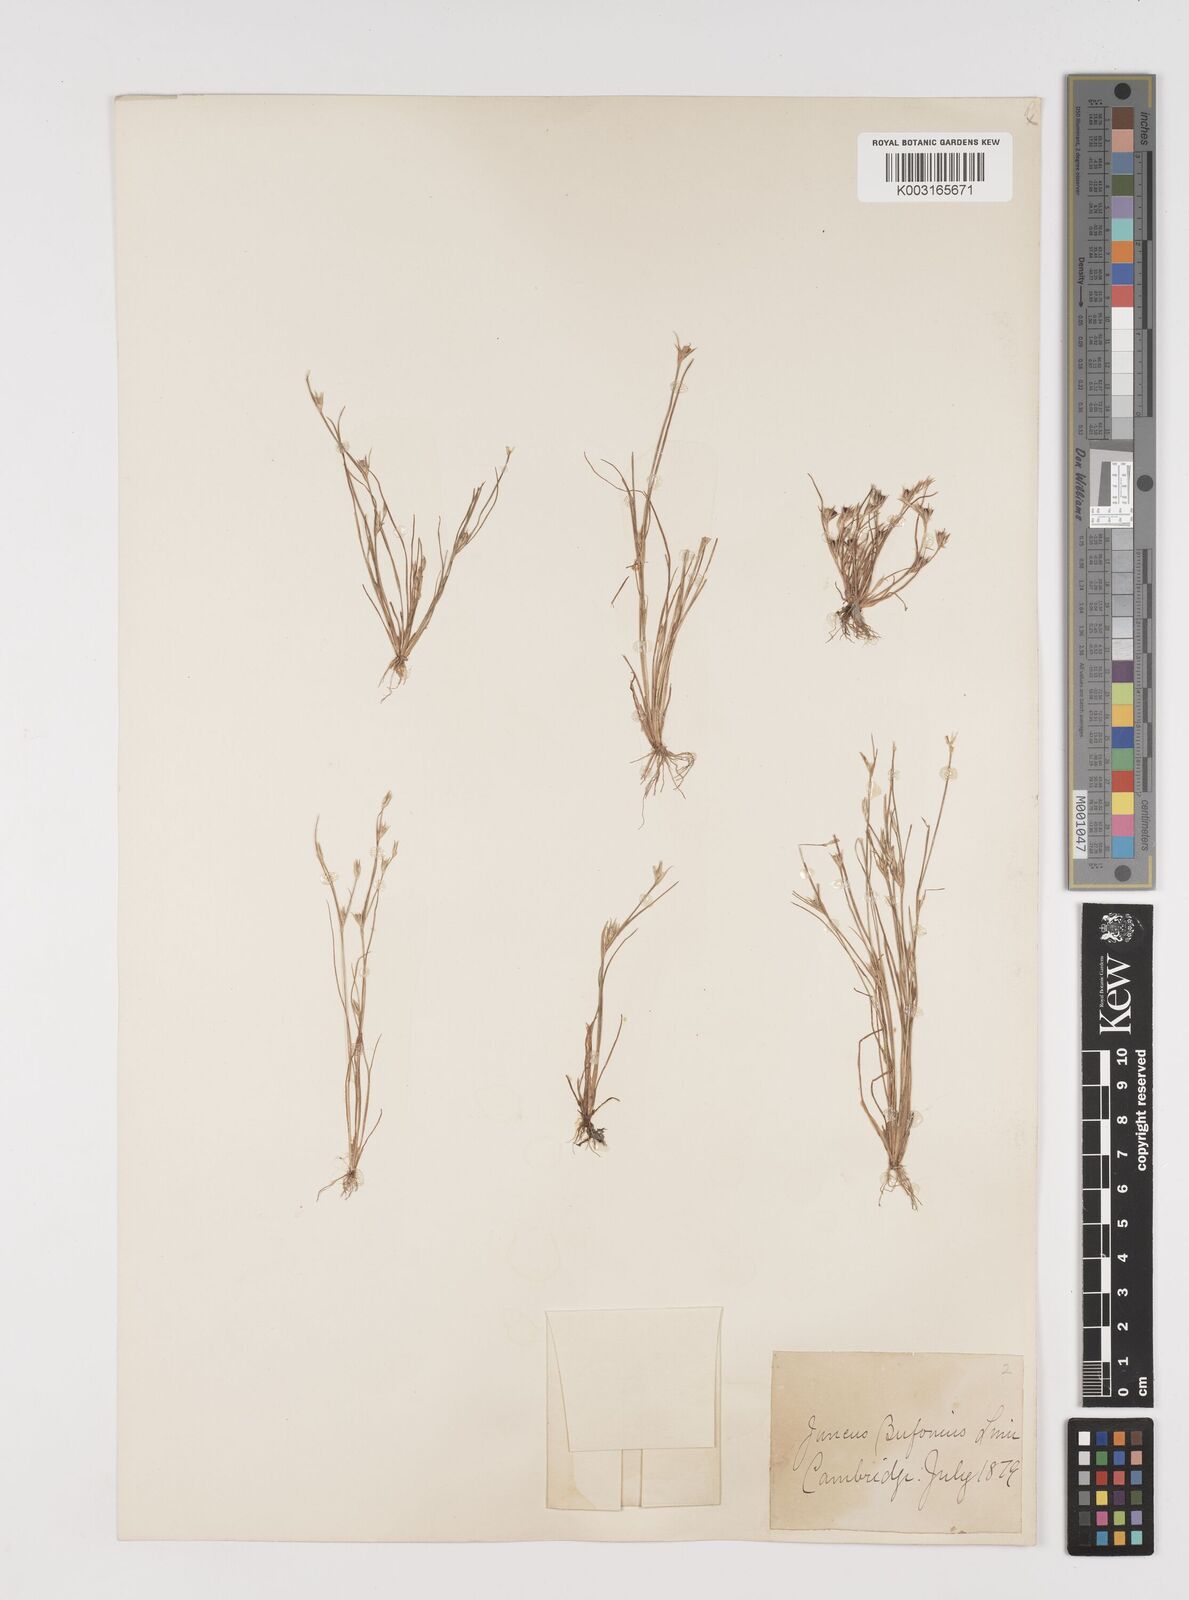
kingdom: Plantae
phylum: Tracheophyta
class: Liliopsida
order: Poales
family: Juncaceae
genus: Juncus
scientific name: Juncus bufonius
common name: Toad rush
